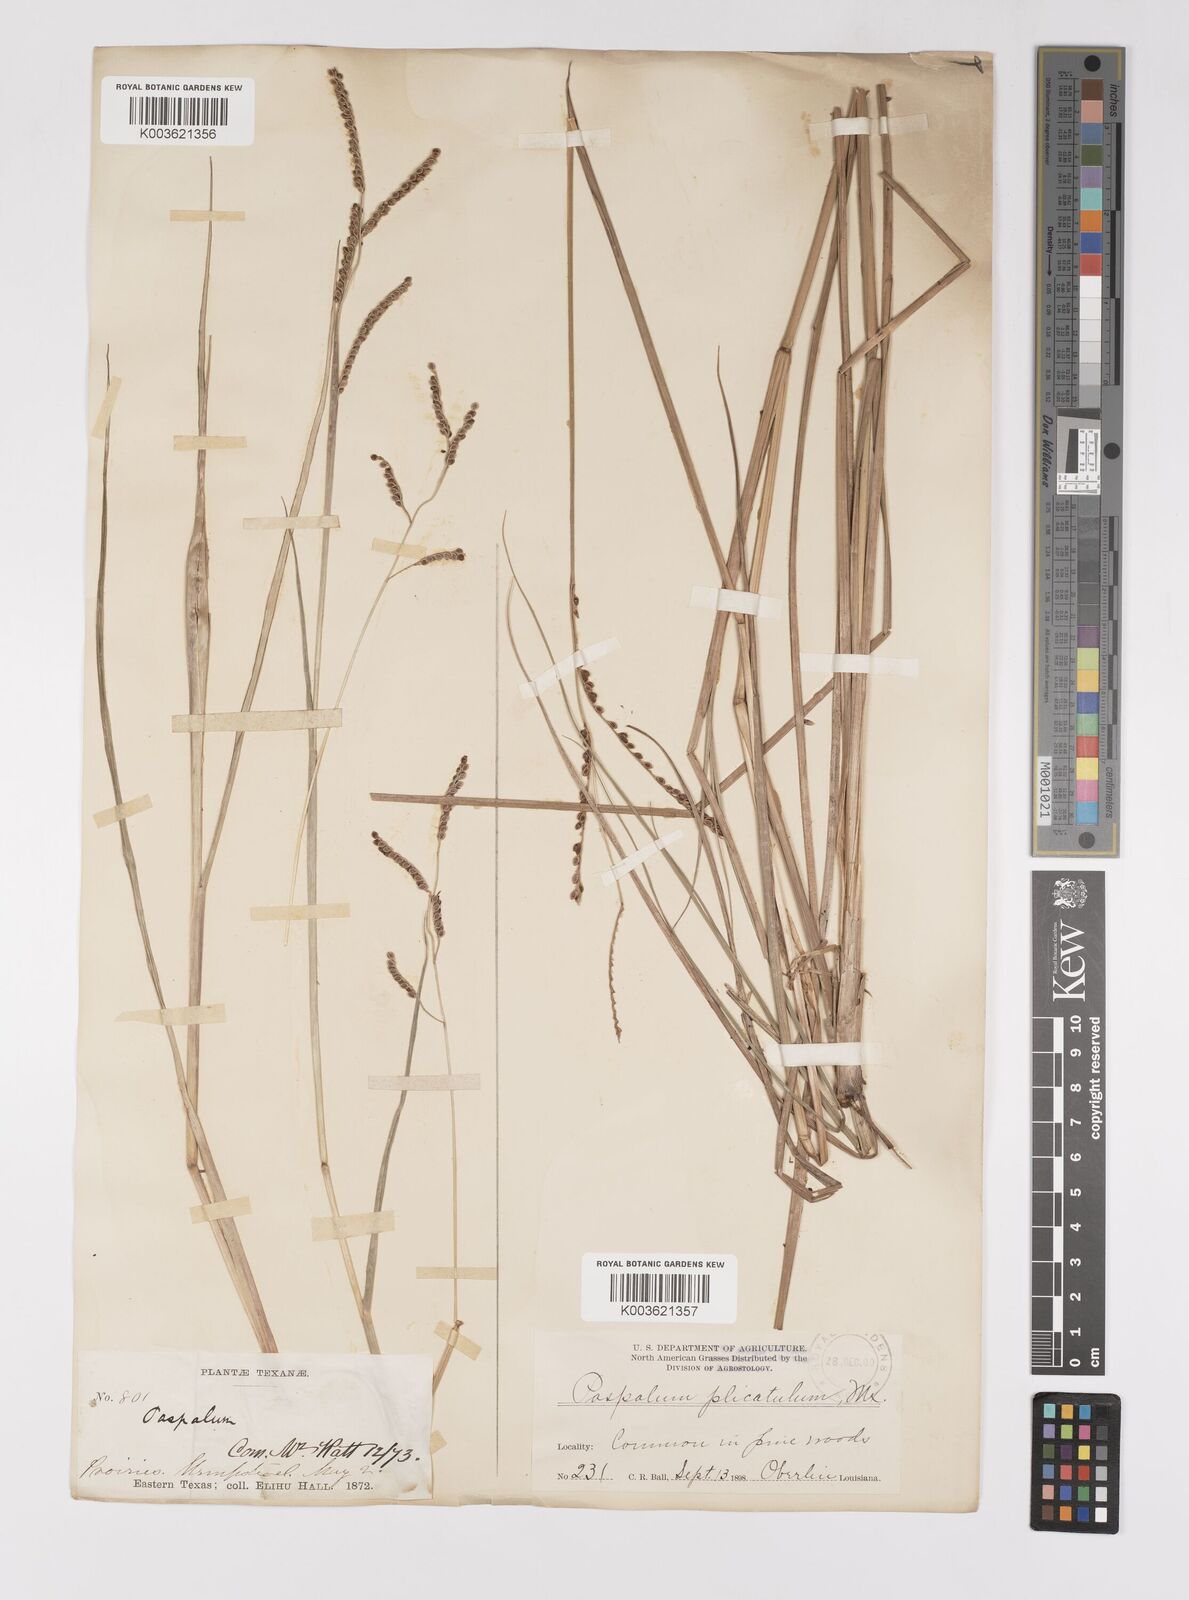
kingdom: Plantae
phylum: Tracheophyta
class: Liliopsida
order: Poales
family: Poaceae
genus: Paspalum
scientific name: Paspalum plicatulum
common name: Top paspalum
